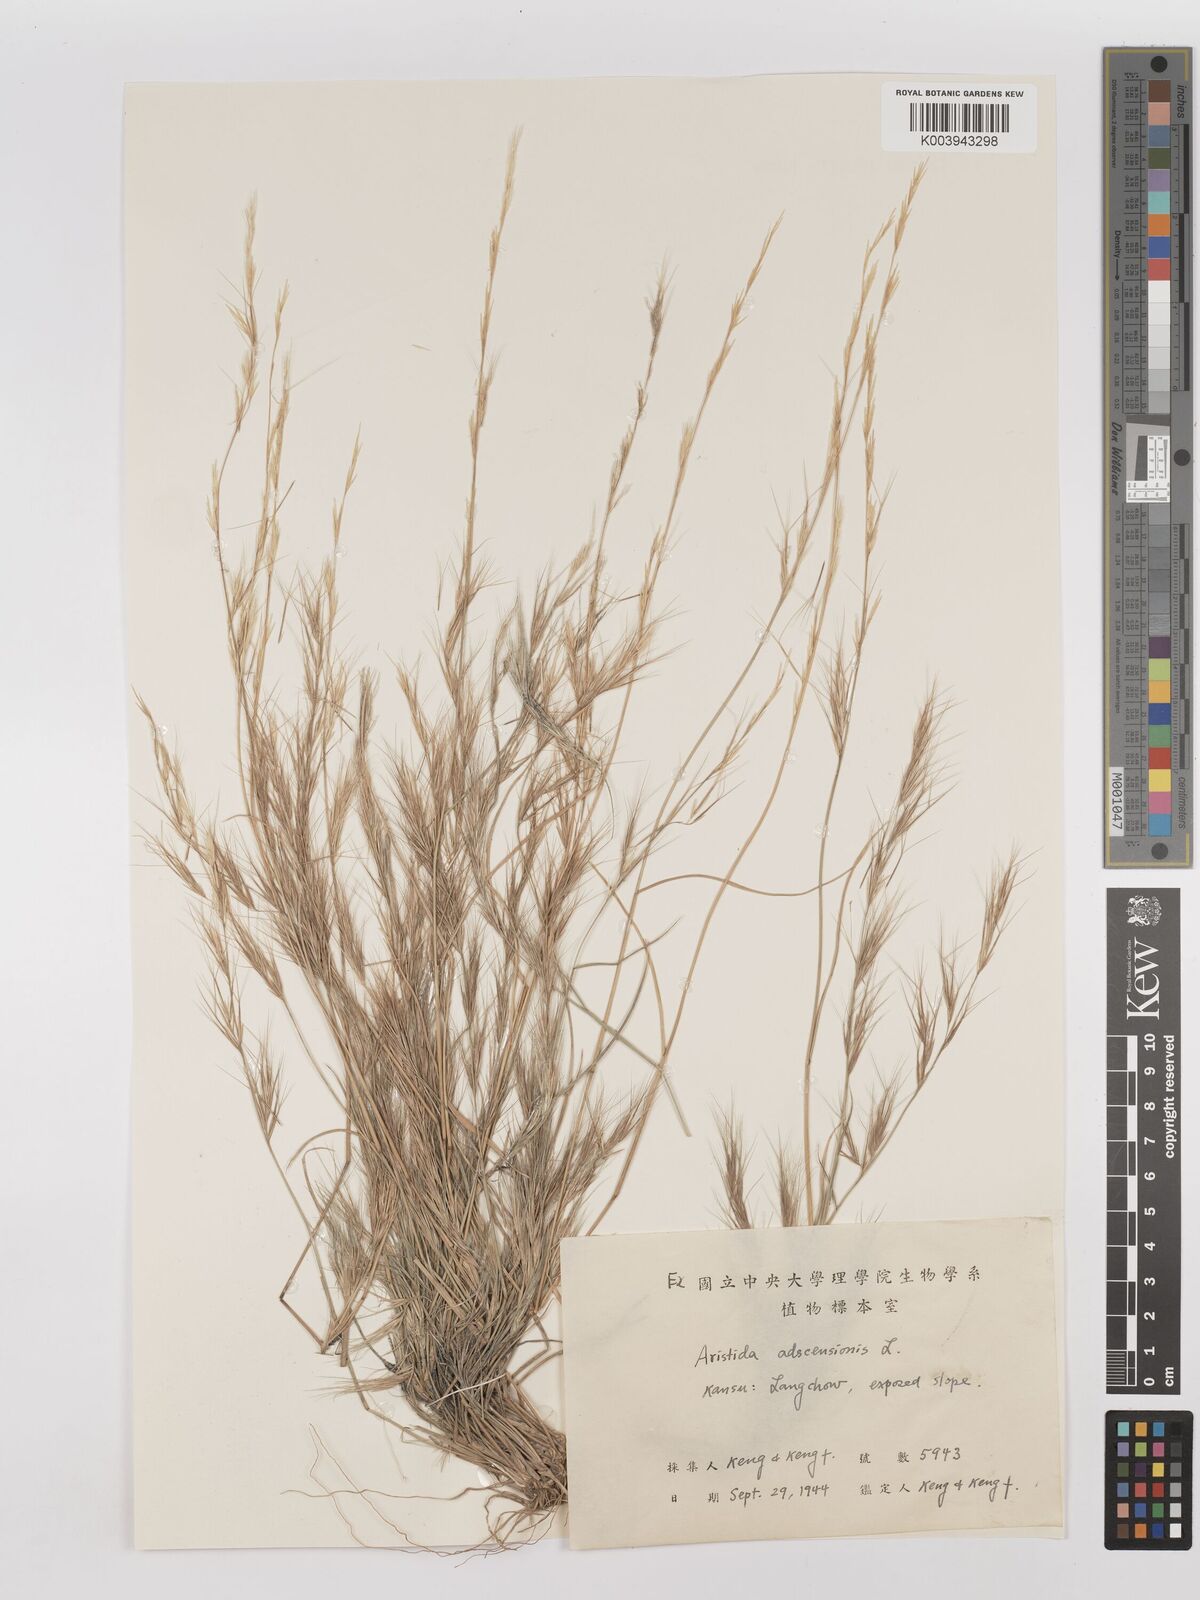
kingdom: Plantae
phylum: Tracheophyta
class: Liliopsida
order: Poales
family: Poaceae
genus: Aristida
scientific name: Aristida adscensionis
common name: Sixweeks threeawn
